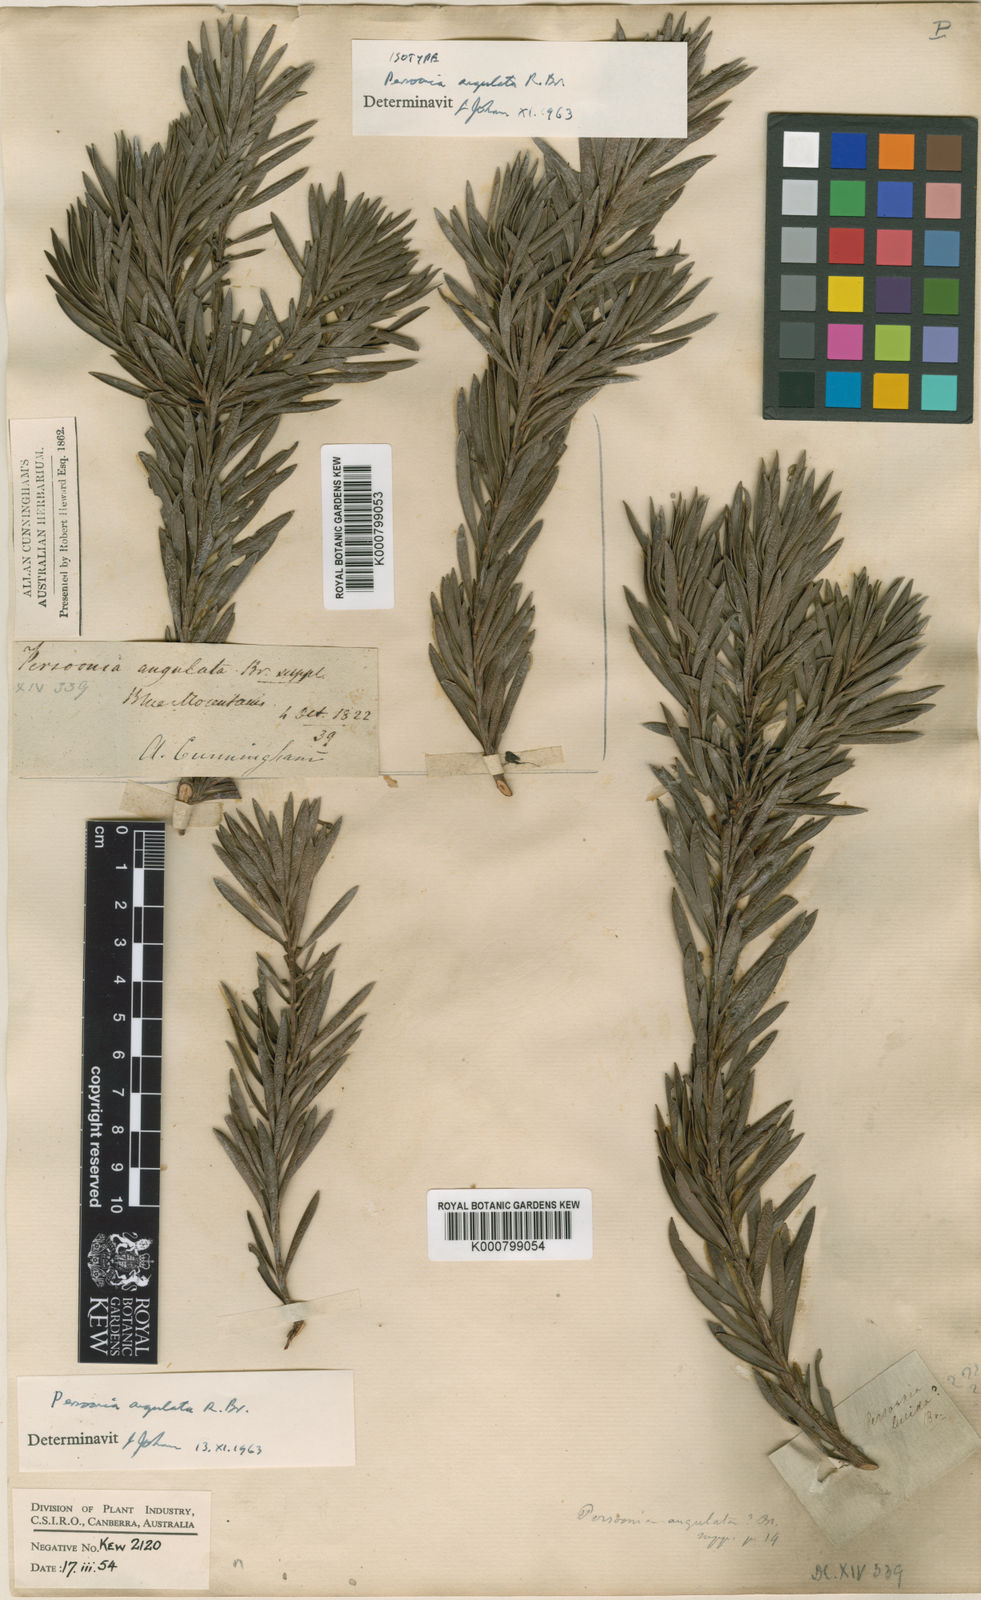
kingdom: Plantae
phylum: Tracheophyta
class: Magnoliopsida
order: Proteales
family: Proteaceae
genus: Persoonia
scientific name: Persoonia
